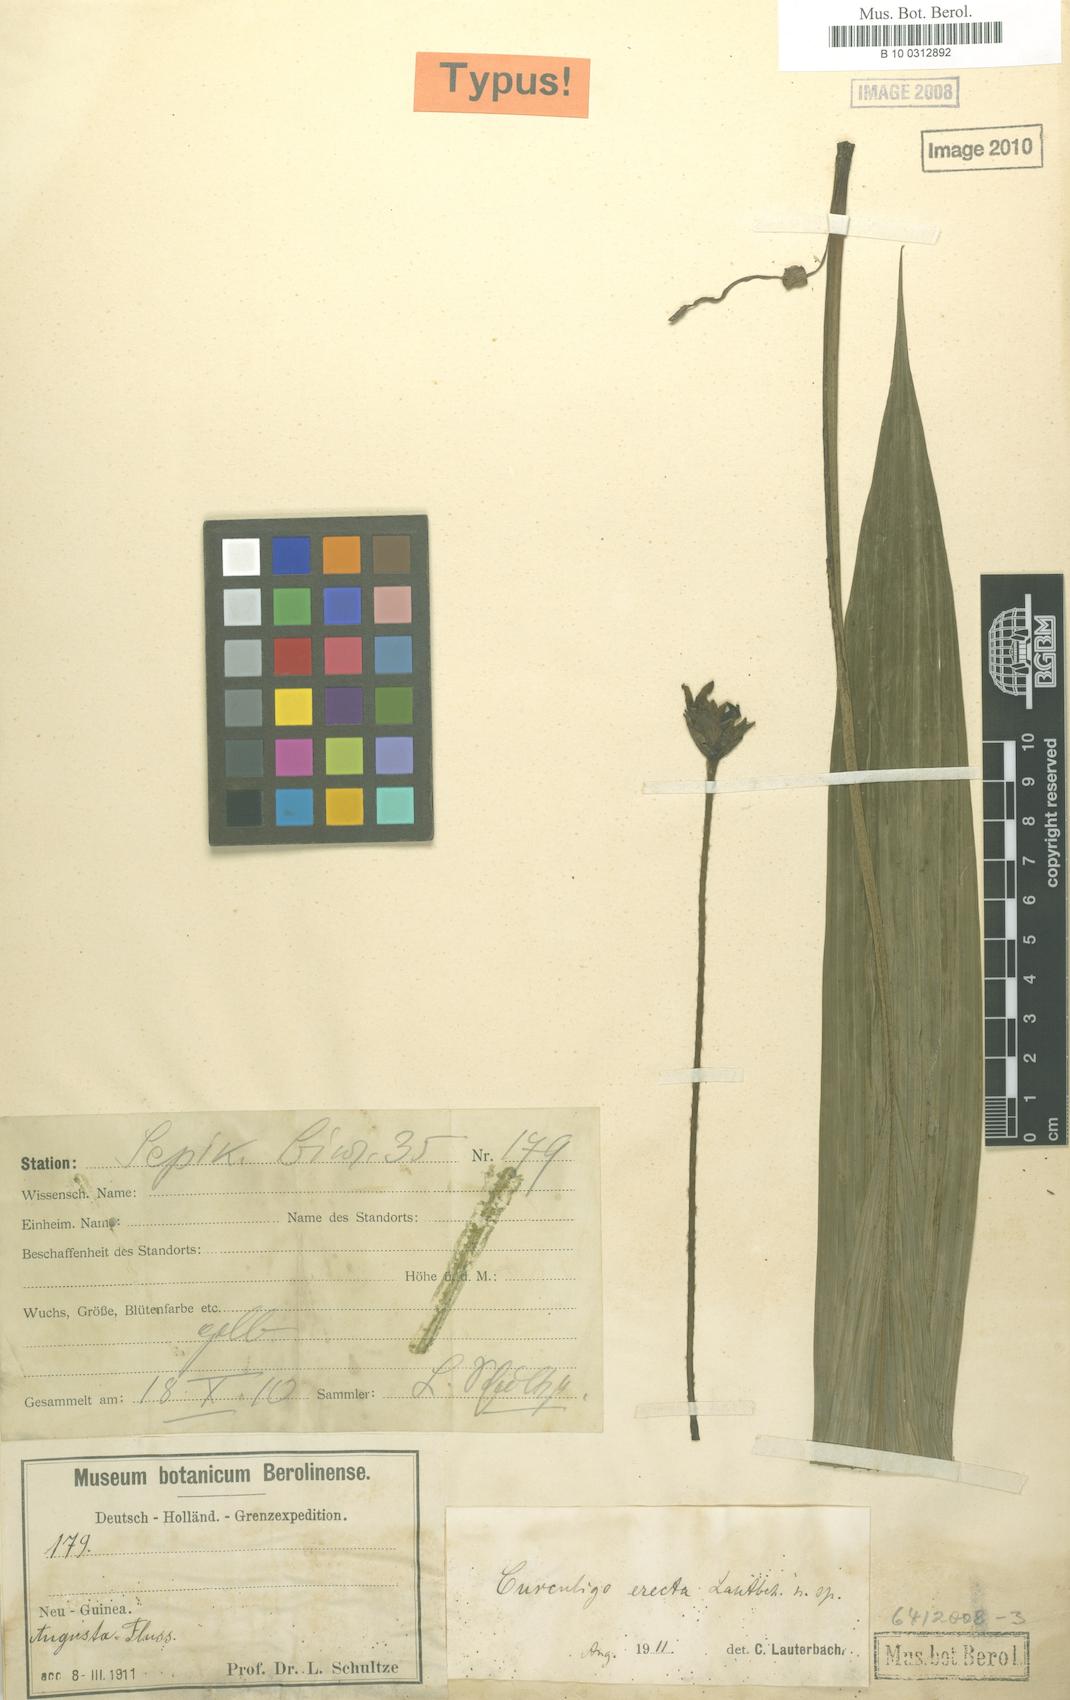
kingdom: Plantae
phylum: Tracheophyta
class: Liliopsida
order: Asparagales
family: Hypoxidaceae
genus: Curculigo
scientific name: Curculigo erecta
